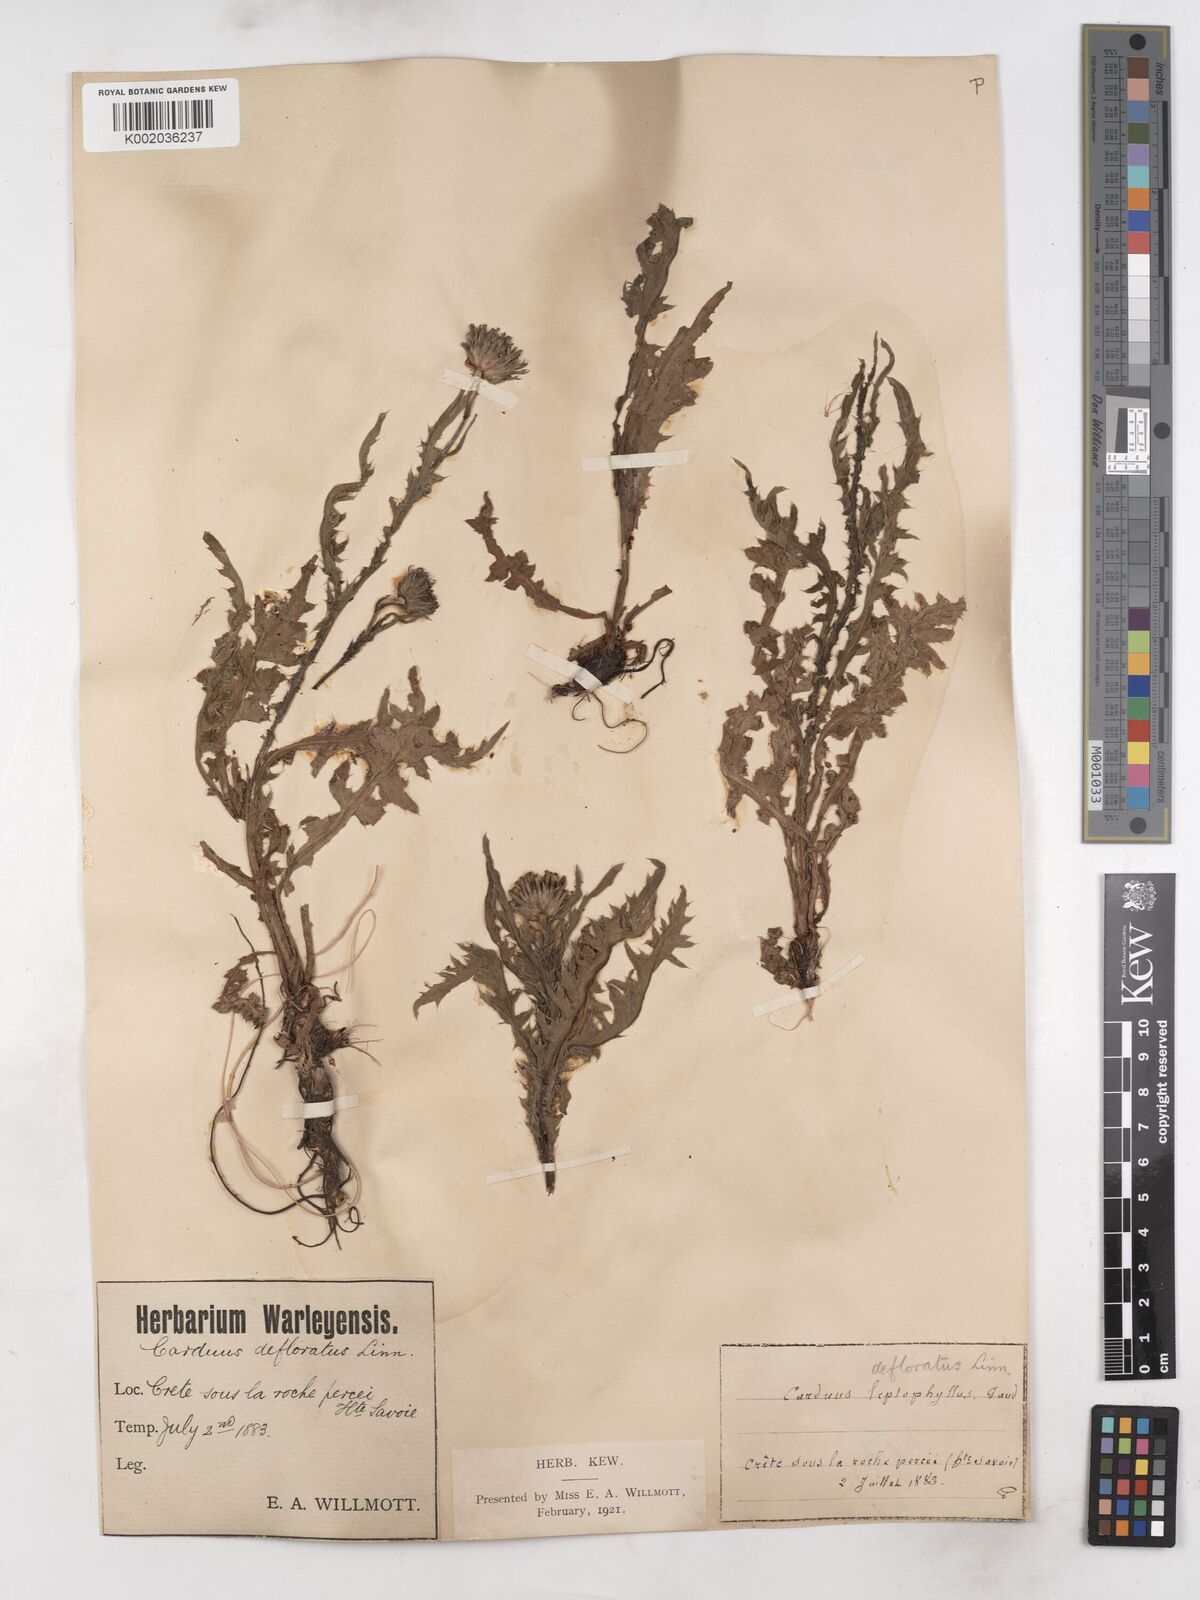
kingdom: Plantae
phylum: Tracheophyta
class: Magnoliopsida
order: Asterales
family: Asteraceae
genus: Carduus
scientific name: Carduus defloratus
